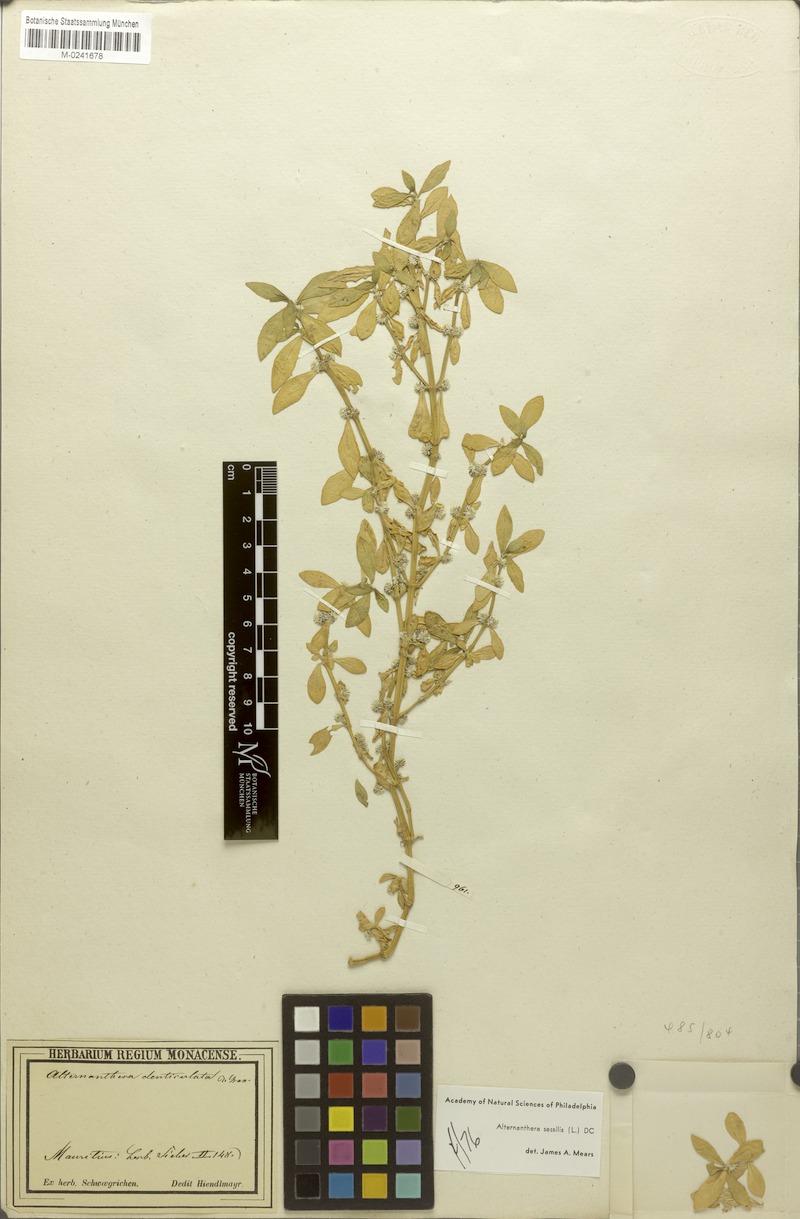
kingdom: Plantae
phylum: Tracheophyta
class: Magnoliopsida
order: Caryophyllales
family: Amaranthaceae
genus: Alternanthera
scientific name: Alternanthera sessilis
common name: Sessile joyweed
